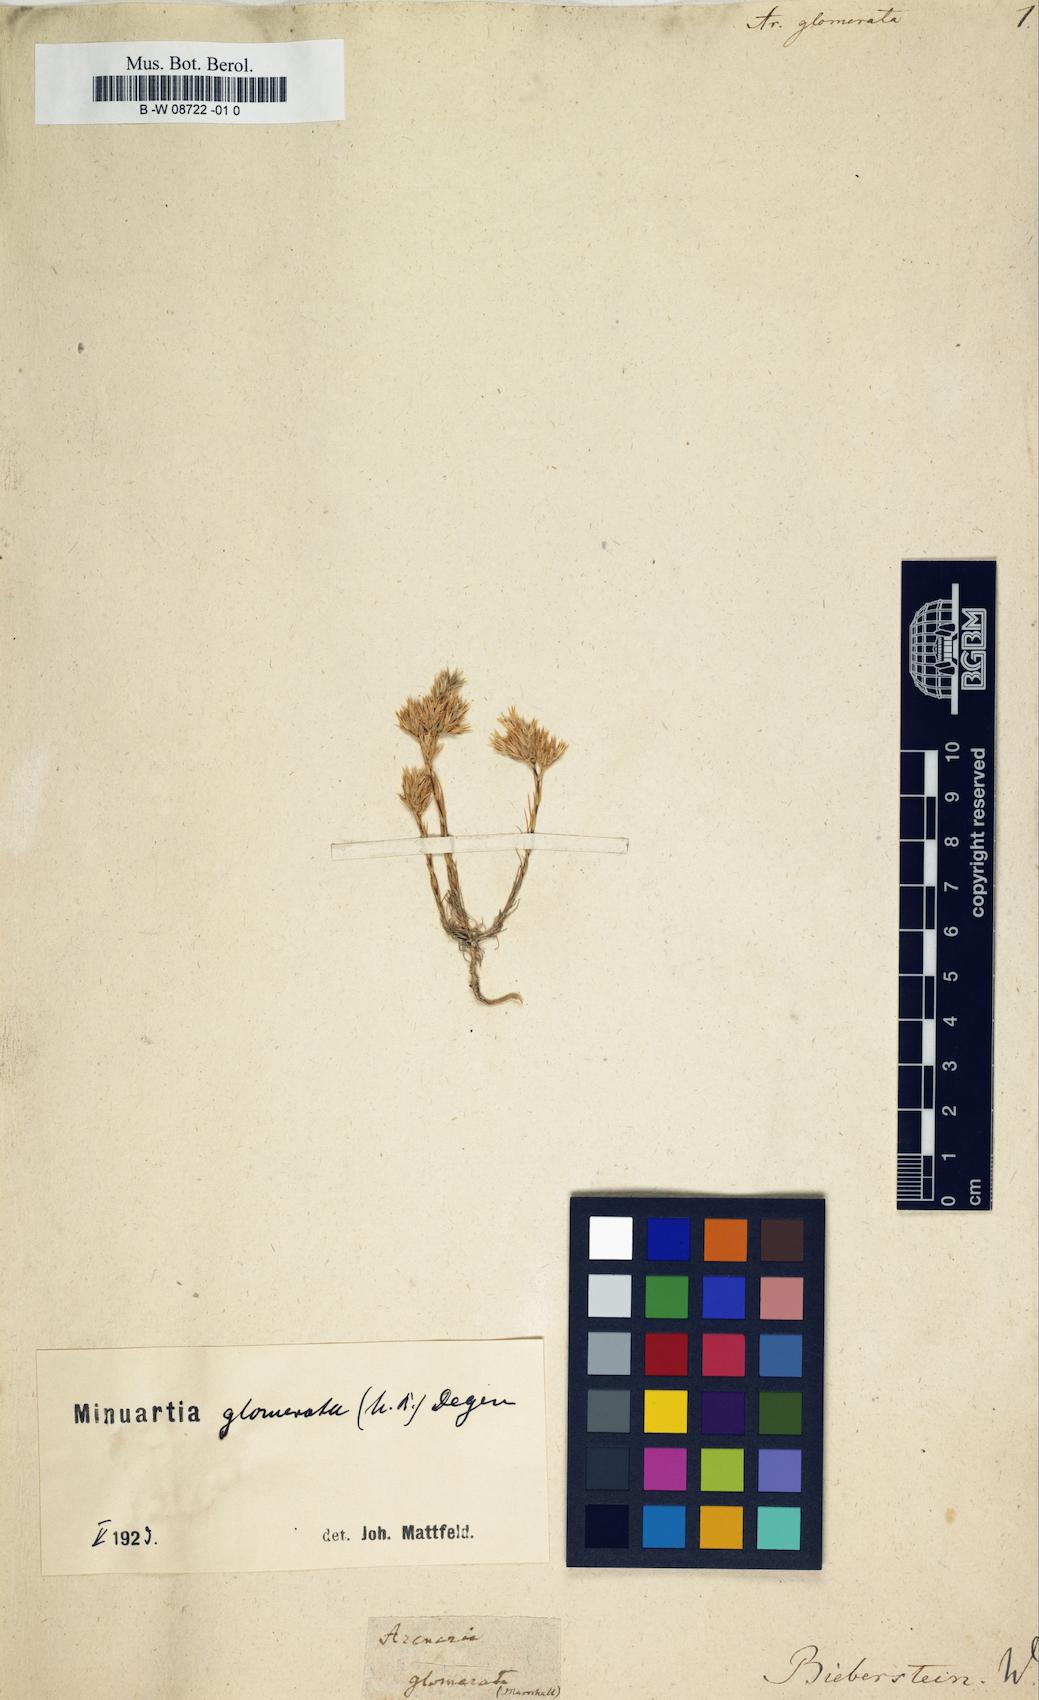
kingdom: Plantae
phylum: Tracheophyta
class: Magnoliopsida
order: Caryophyllales
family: Caryophyllaceae
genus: Minuartia
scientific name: Minuartia glomerata
